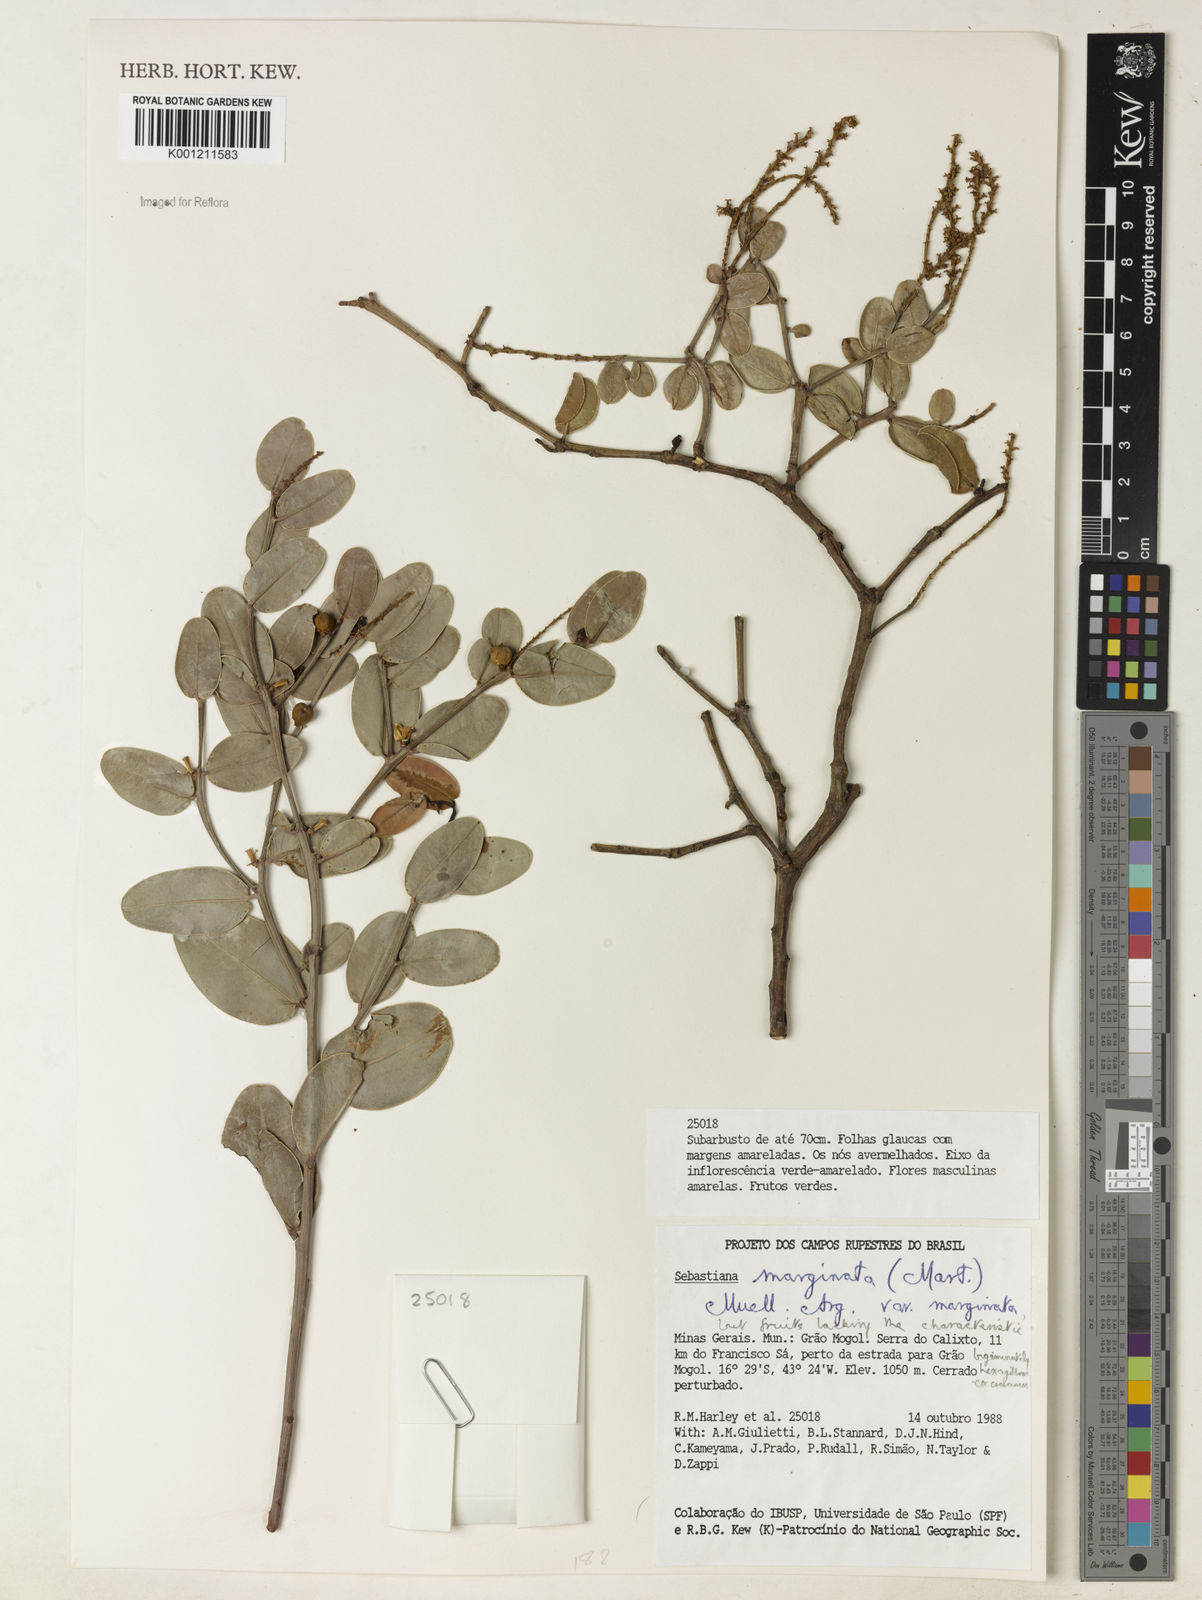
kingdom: Plantae
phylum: Tracheophyta
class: Magnoliopsida
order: Malpighiales
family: Euphorbiaceae
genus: Microstachys
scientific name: Microstachys
